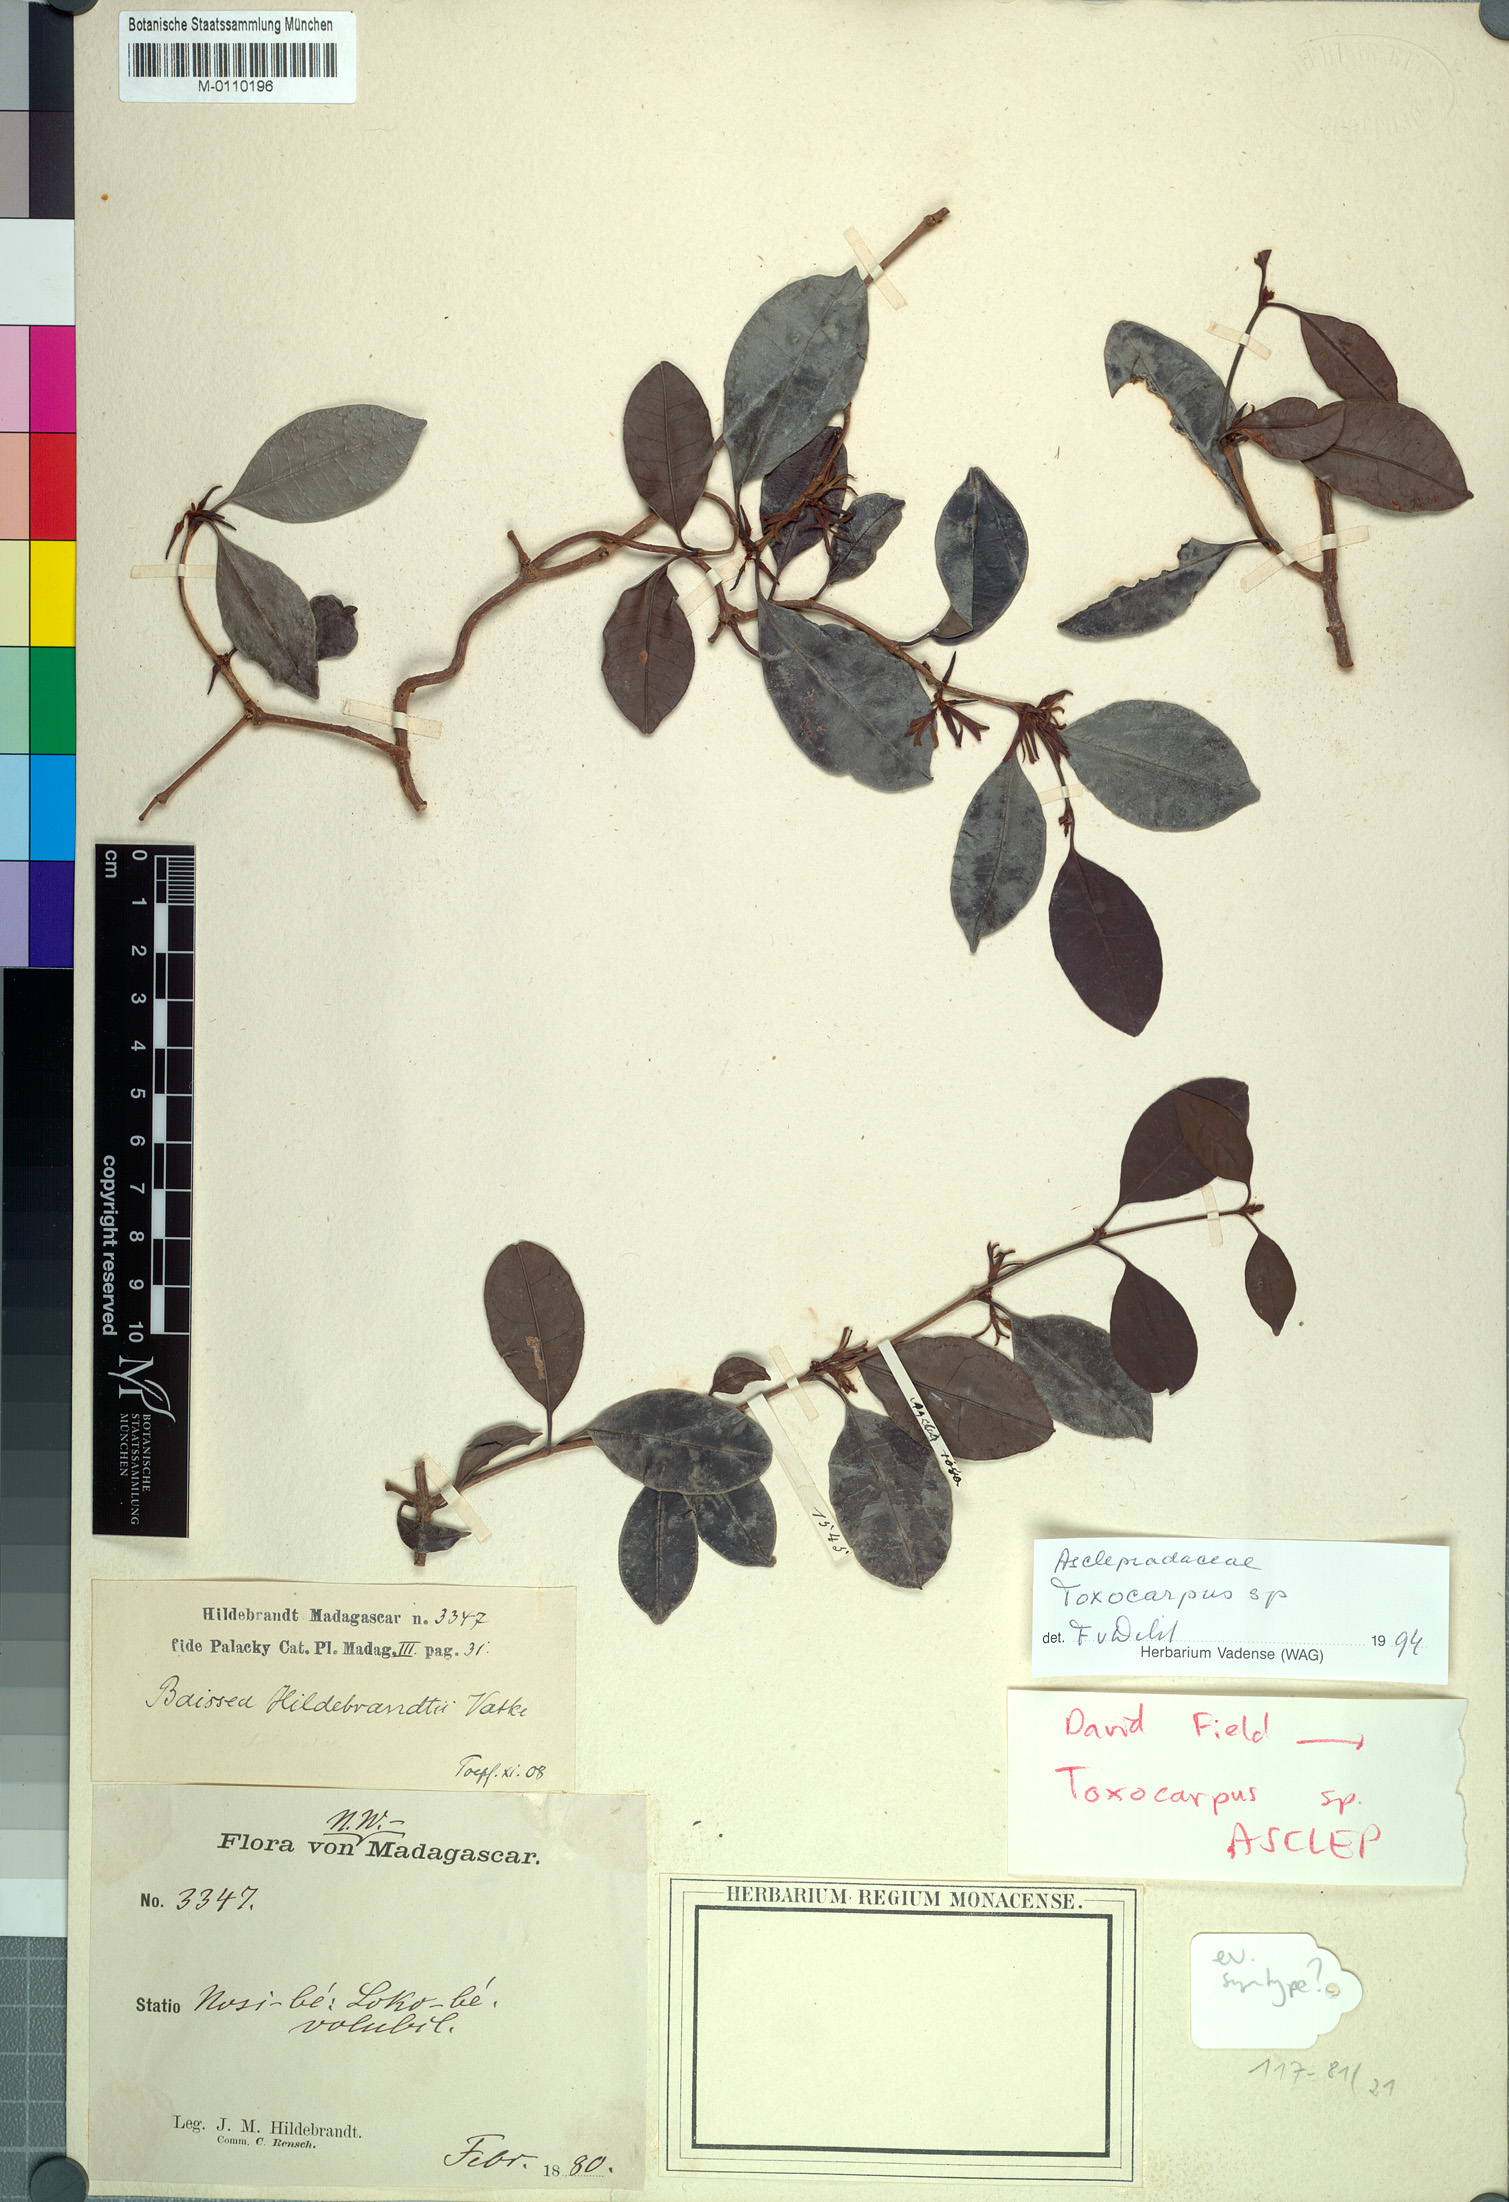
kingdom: Plantae
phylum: Tracheophyta
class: Magnoliopsida
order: Gentianales
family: Apocynaceae
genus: Toxocarpus
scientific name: Toxocarpus
